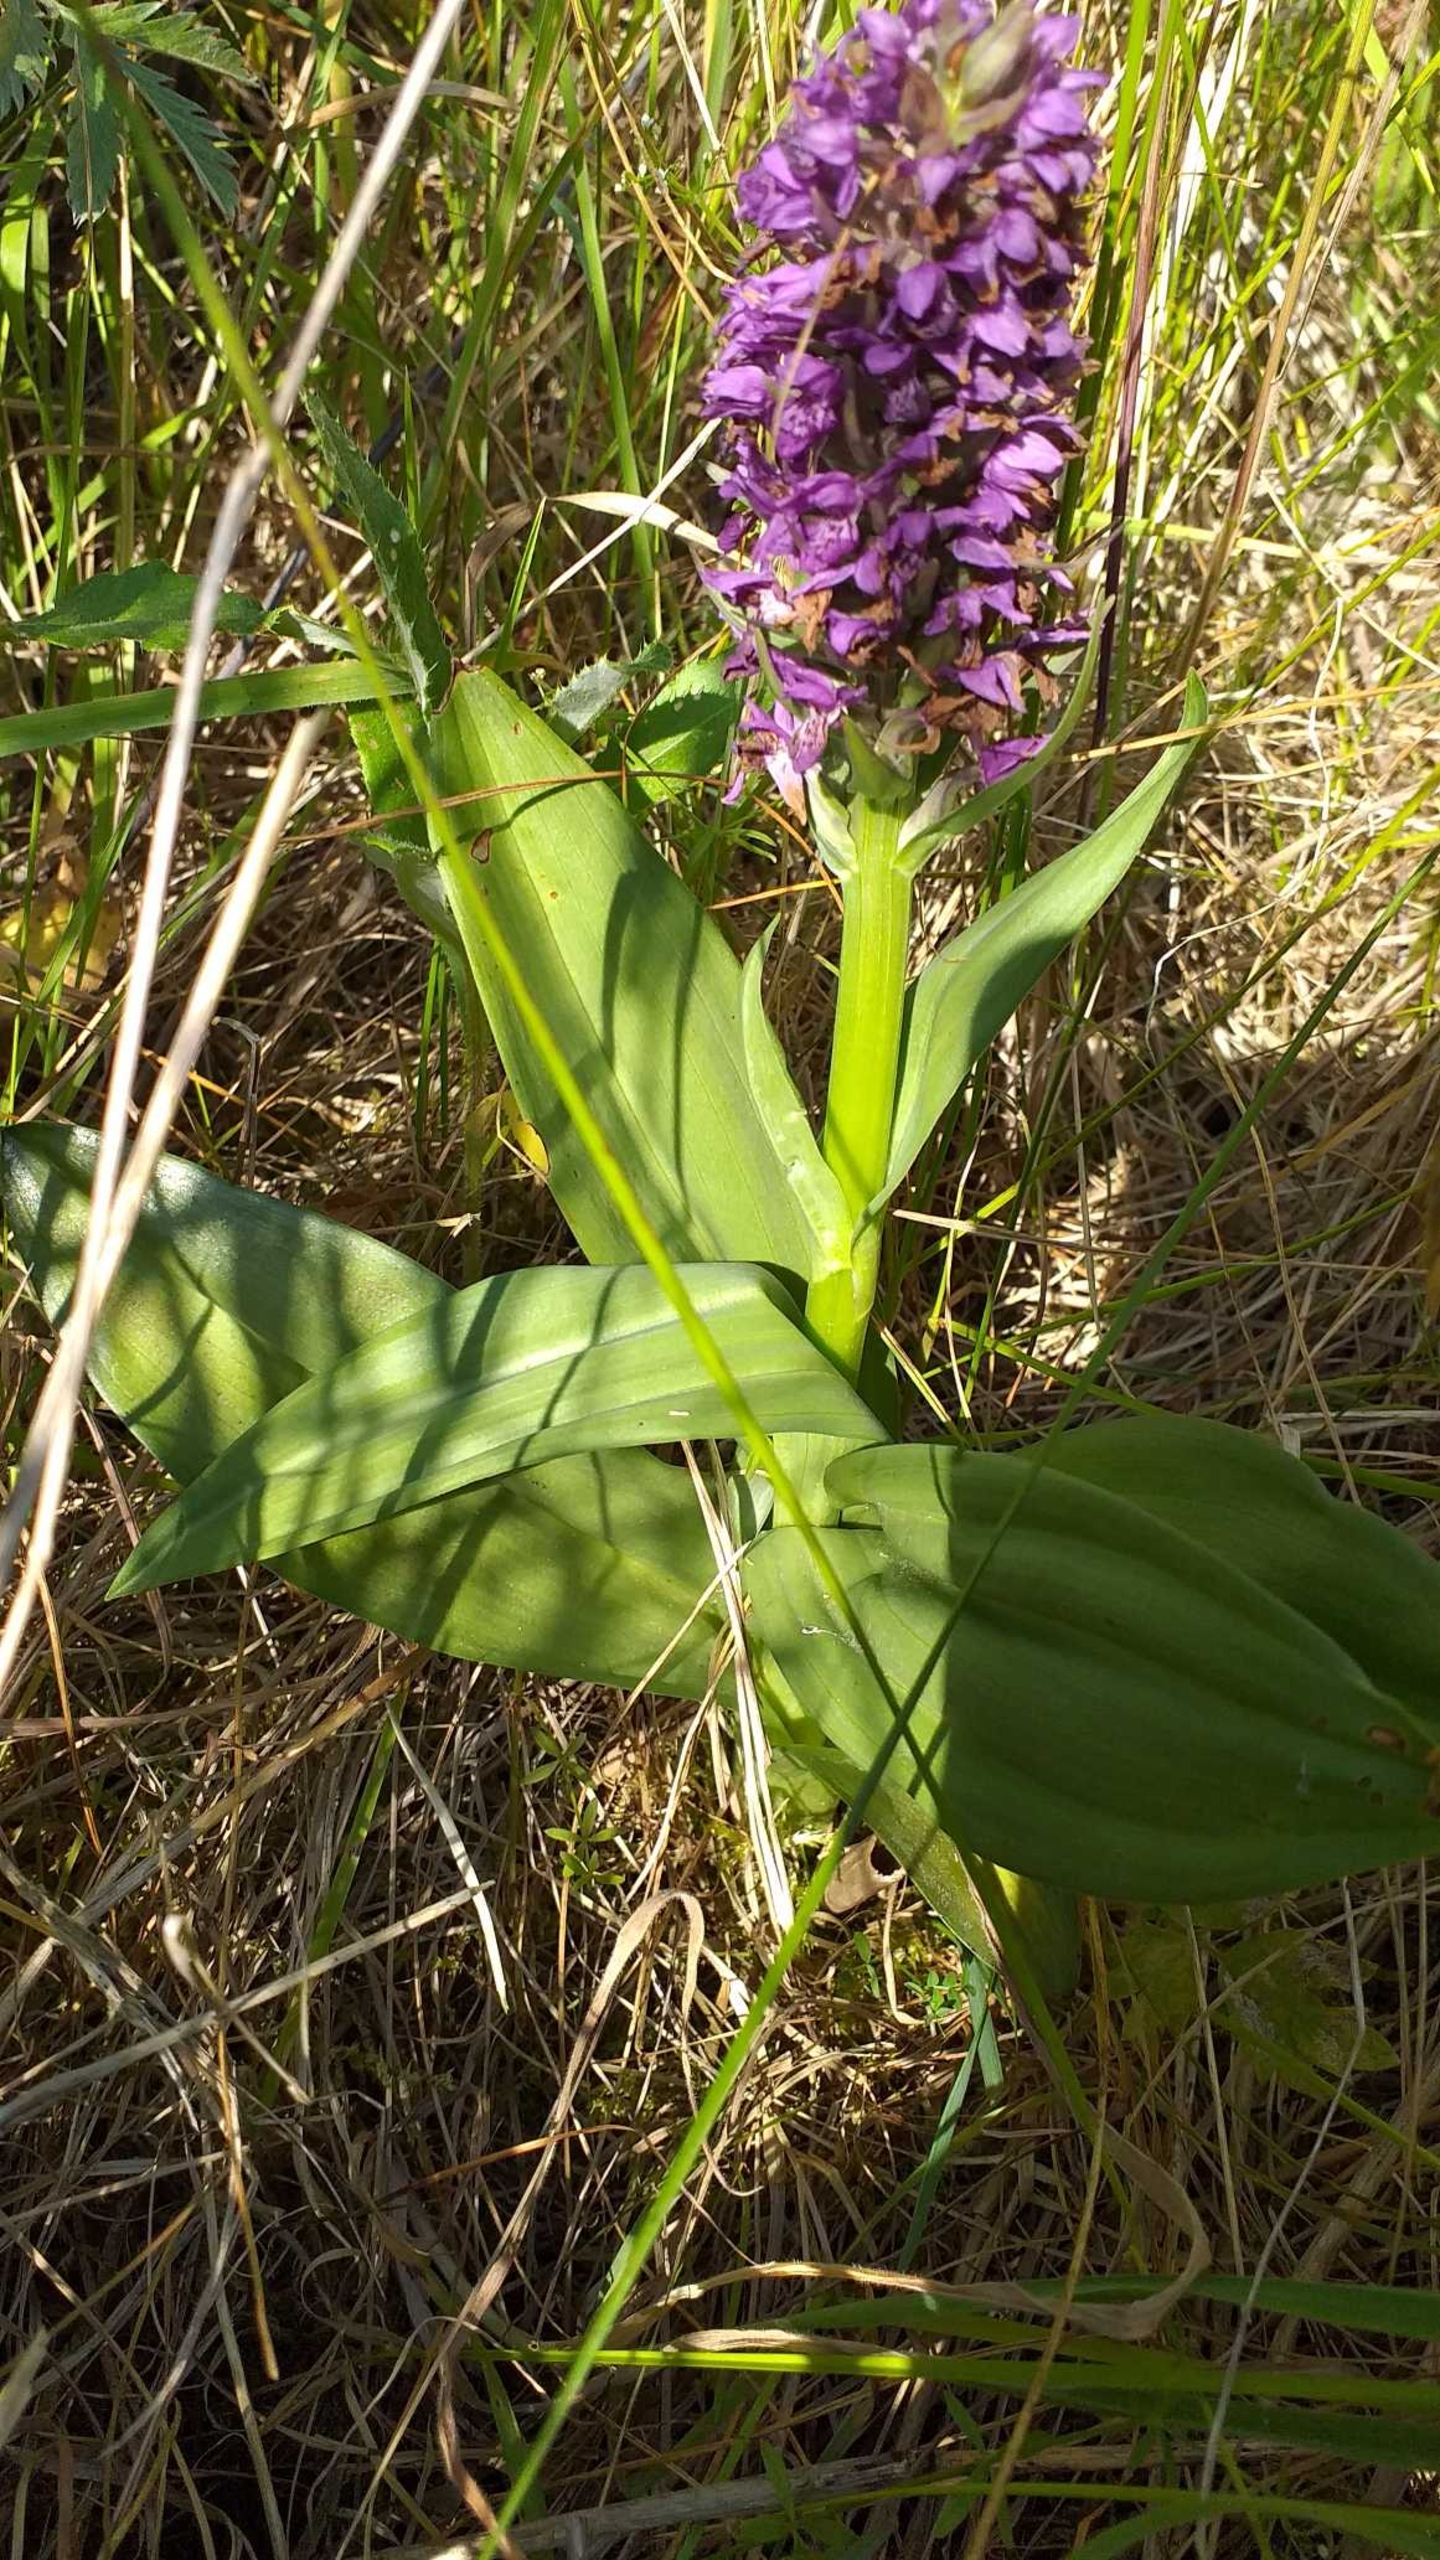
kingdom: Plantae
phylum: Tracheophyta
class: Liliopsida
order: Asparagales
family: Orchidaceae
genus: Dactylorhiza
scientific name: Dactylorhiza majalis
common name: Purpur-gøgeurt
